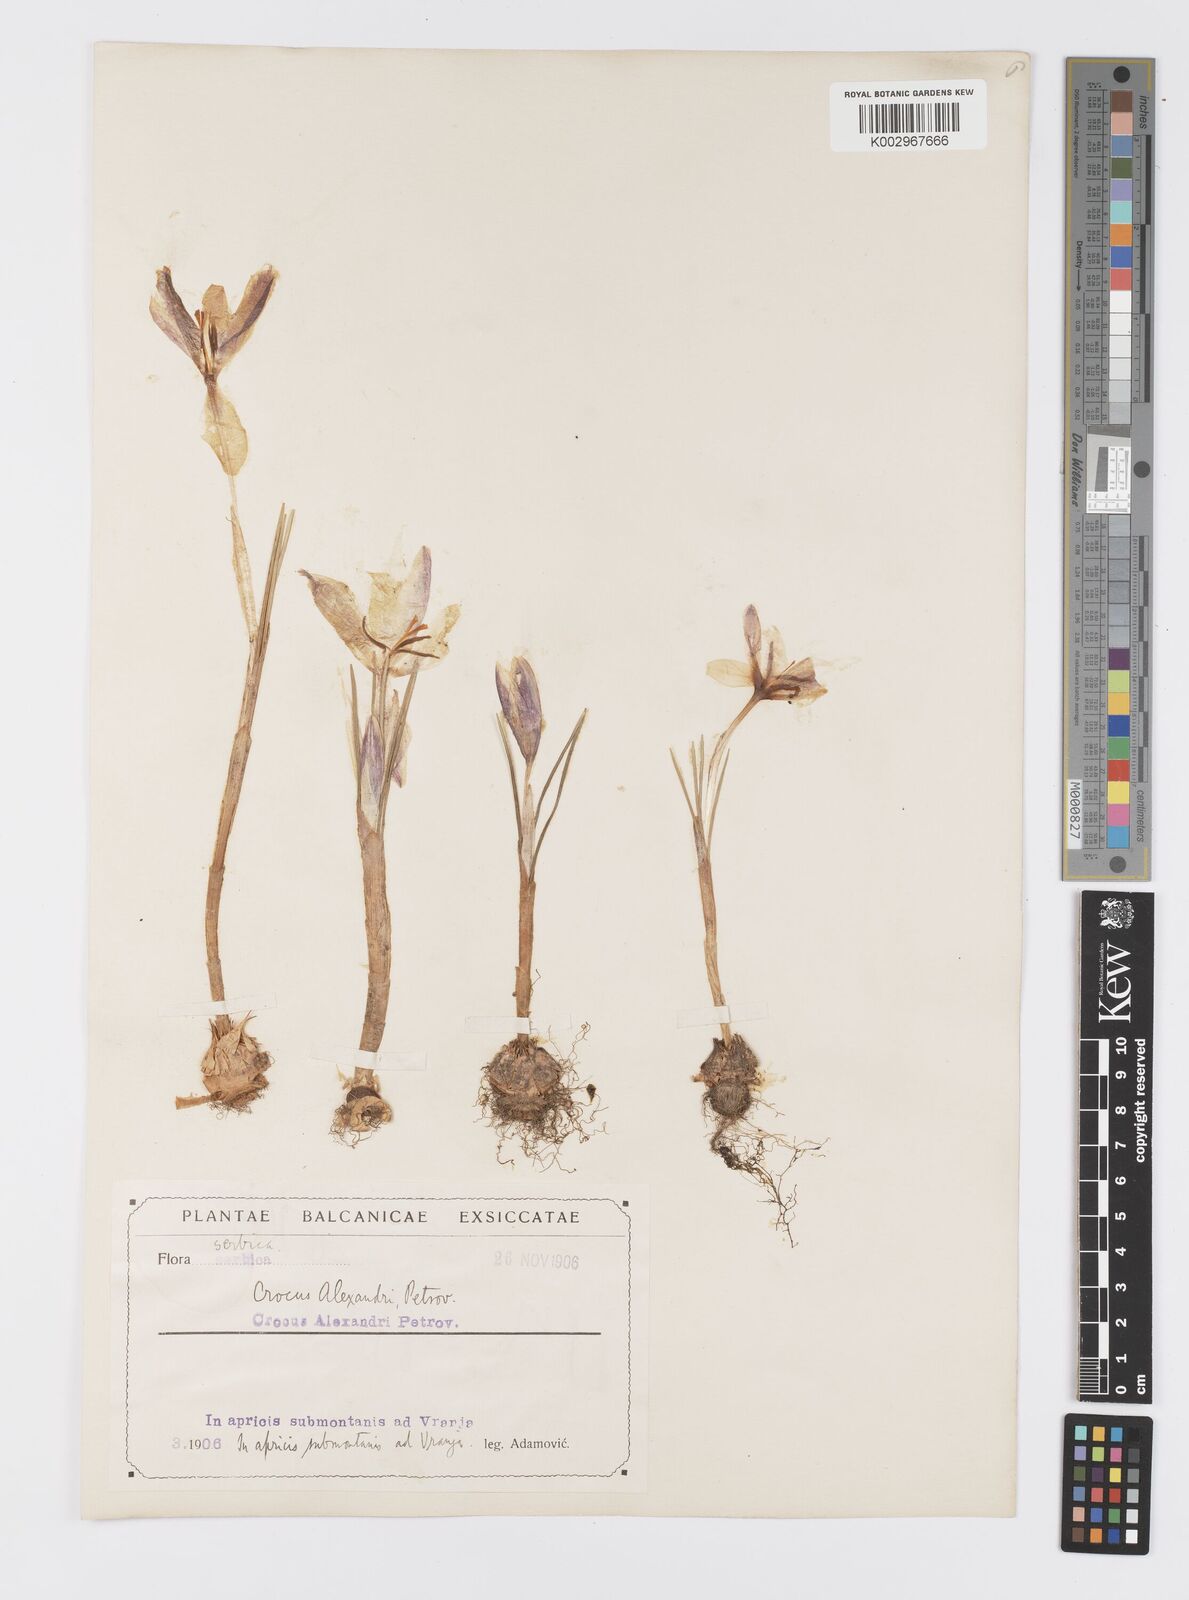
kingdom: Plantae
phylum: Tracheophyta
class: Liliopsida
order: Asparagales
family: Iridaceae
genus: Crocus
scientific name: Crocus alexandri
